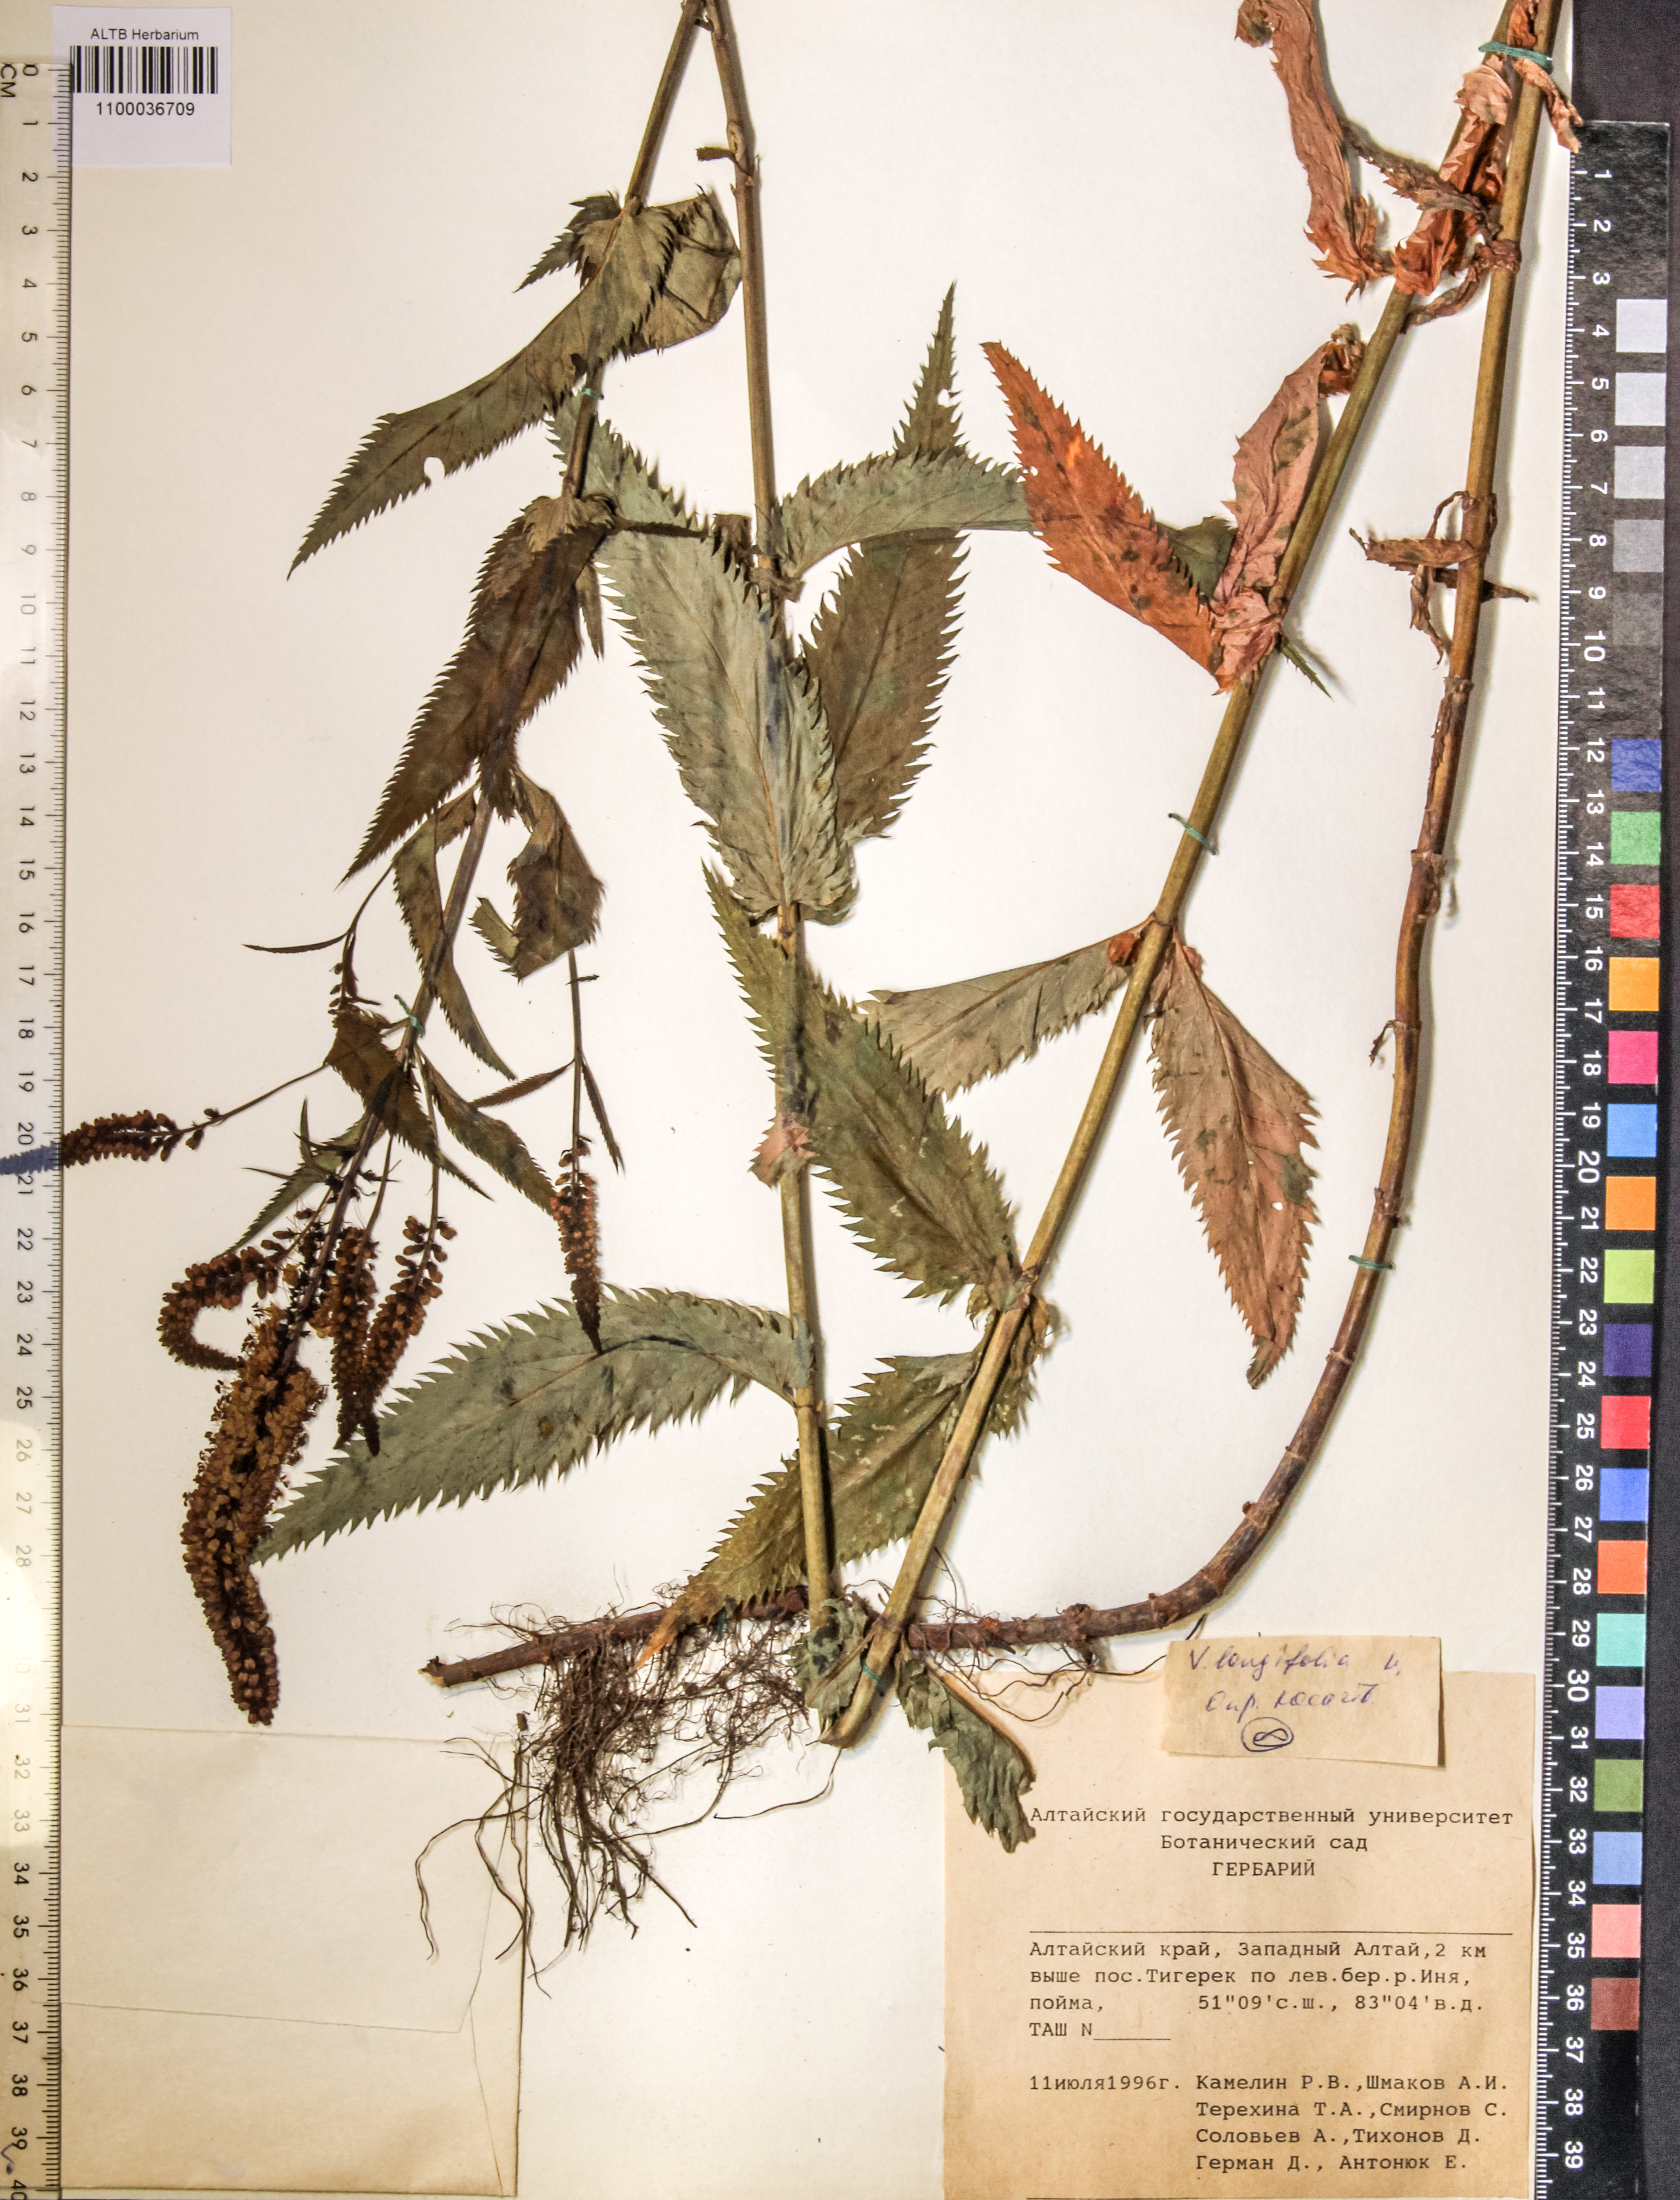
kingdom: Plantae
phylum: Tracheophyta
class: Magnoliopsida
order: Lamiales
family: Plantaginaceae
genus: Veronica
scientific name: Veronica longifolia
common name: Garden speedwell
